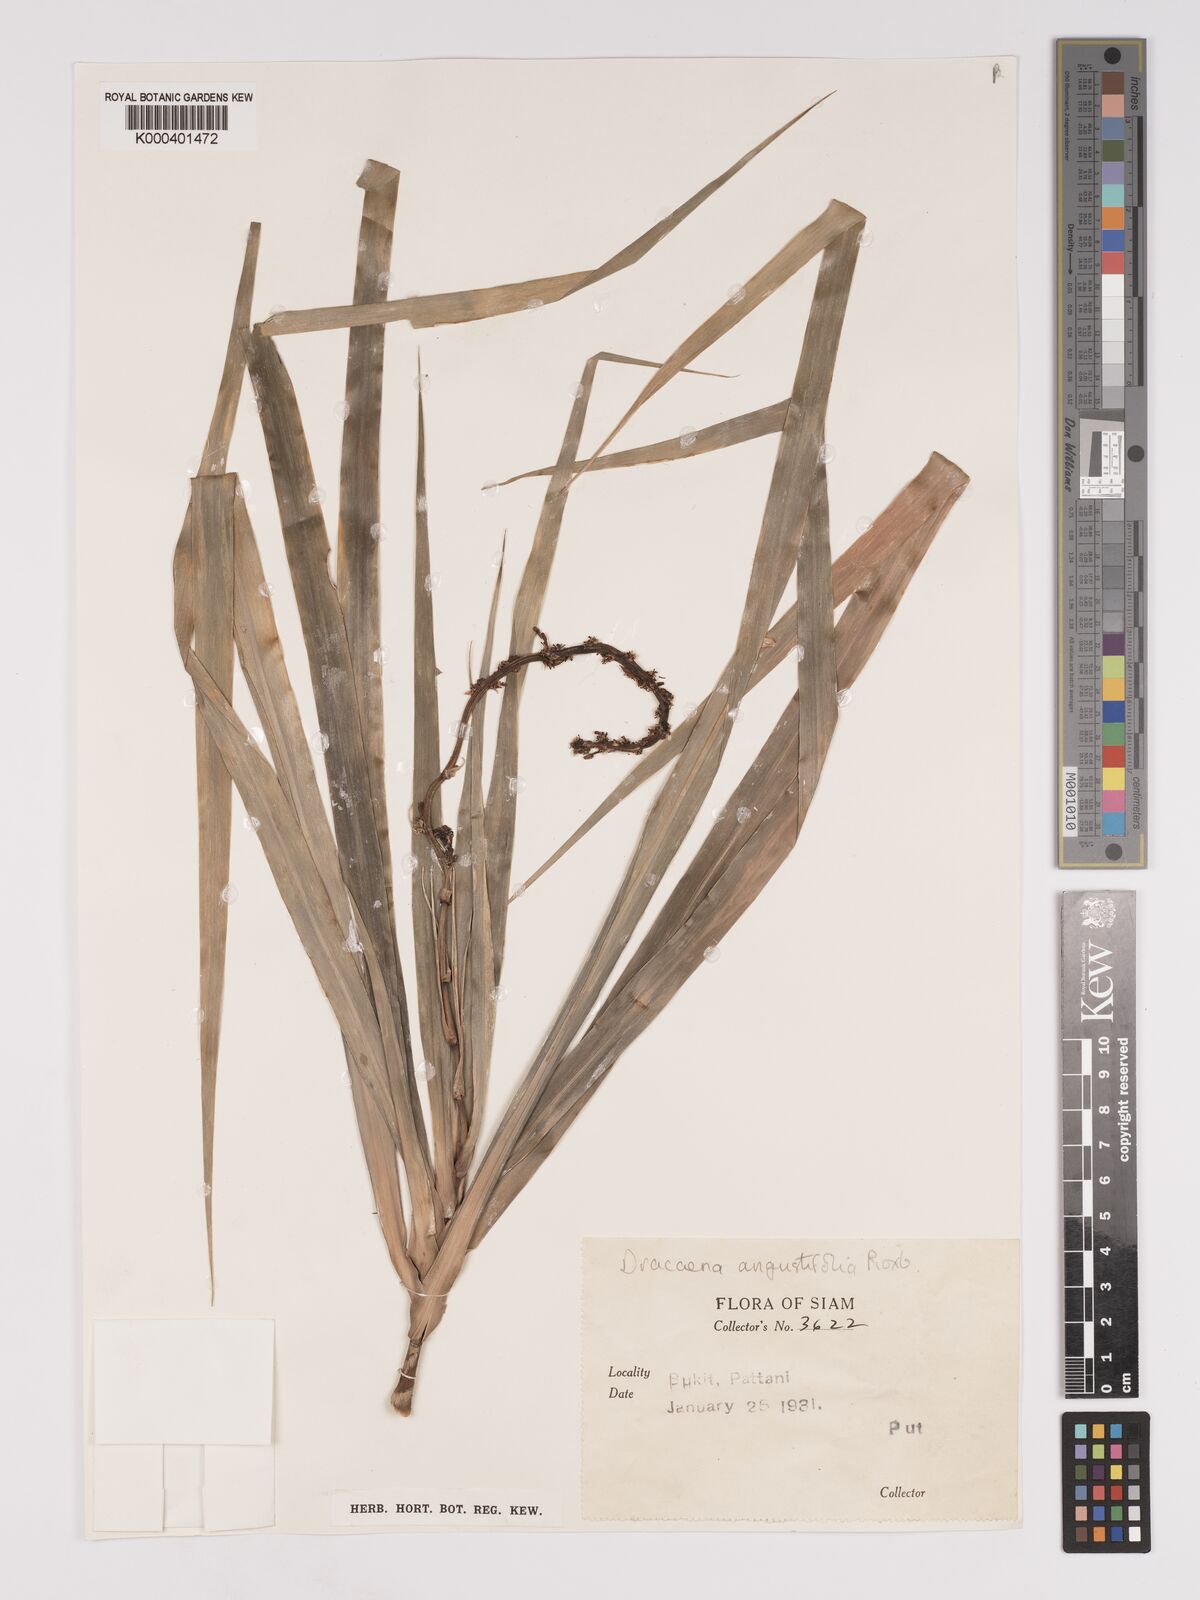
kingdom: Plantae
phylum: Tracheophyta
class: Liliopsida
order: Asparagales
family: Asparagaceae
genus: Dracaena
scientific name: Dracaena
